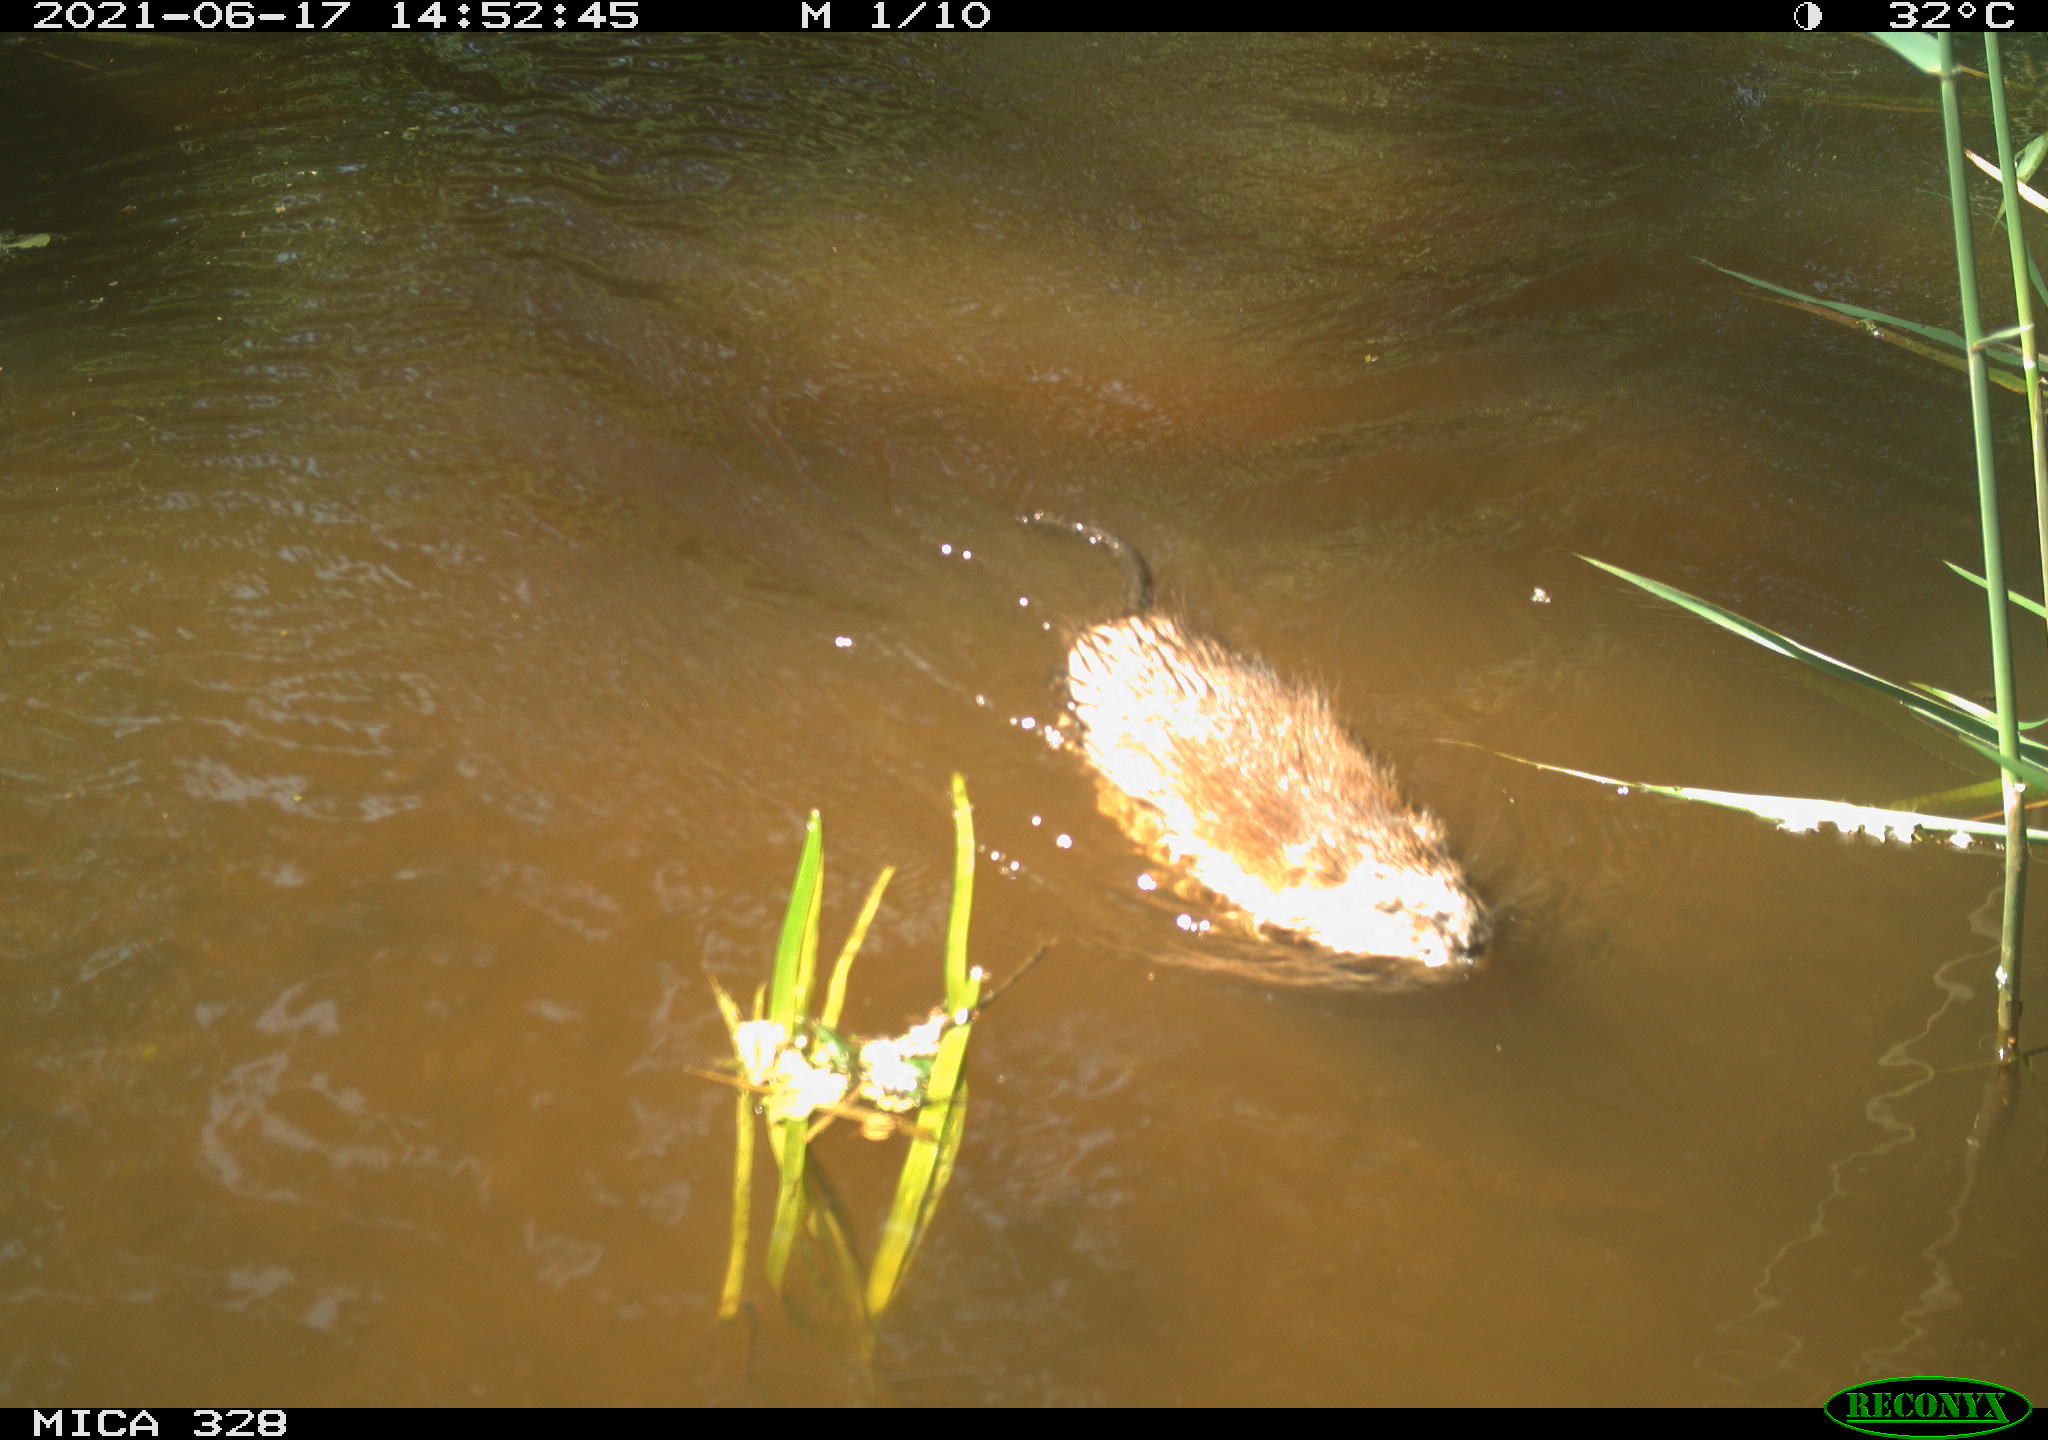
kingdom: Animalia
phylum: Chordata
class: Mammalia
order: Rodentia
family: Cricetidae
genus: Ondatra
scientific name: Ondatra zibethicus
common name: Muskrat
